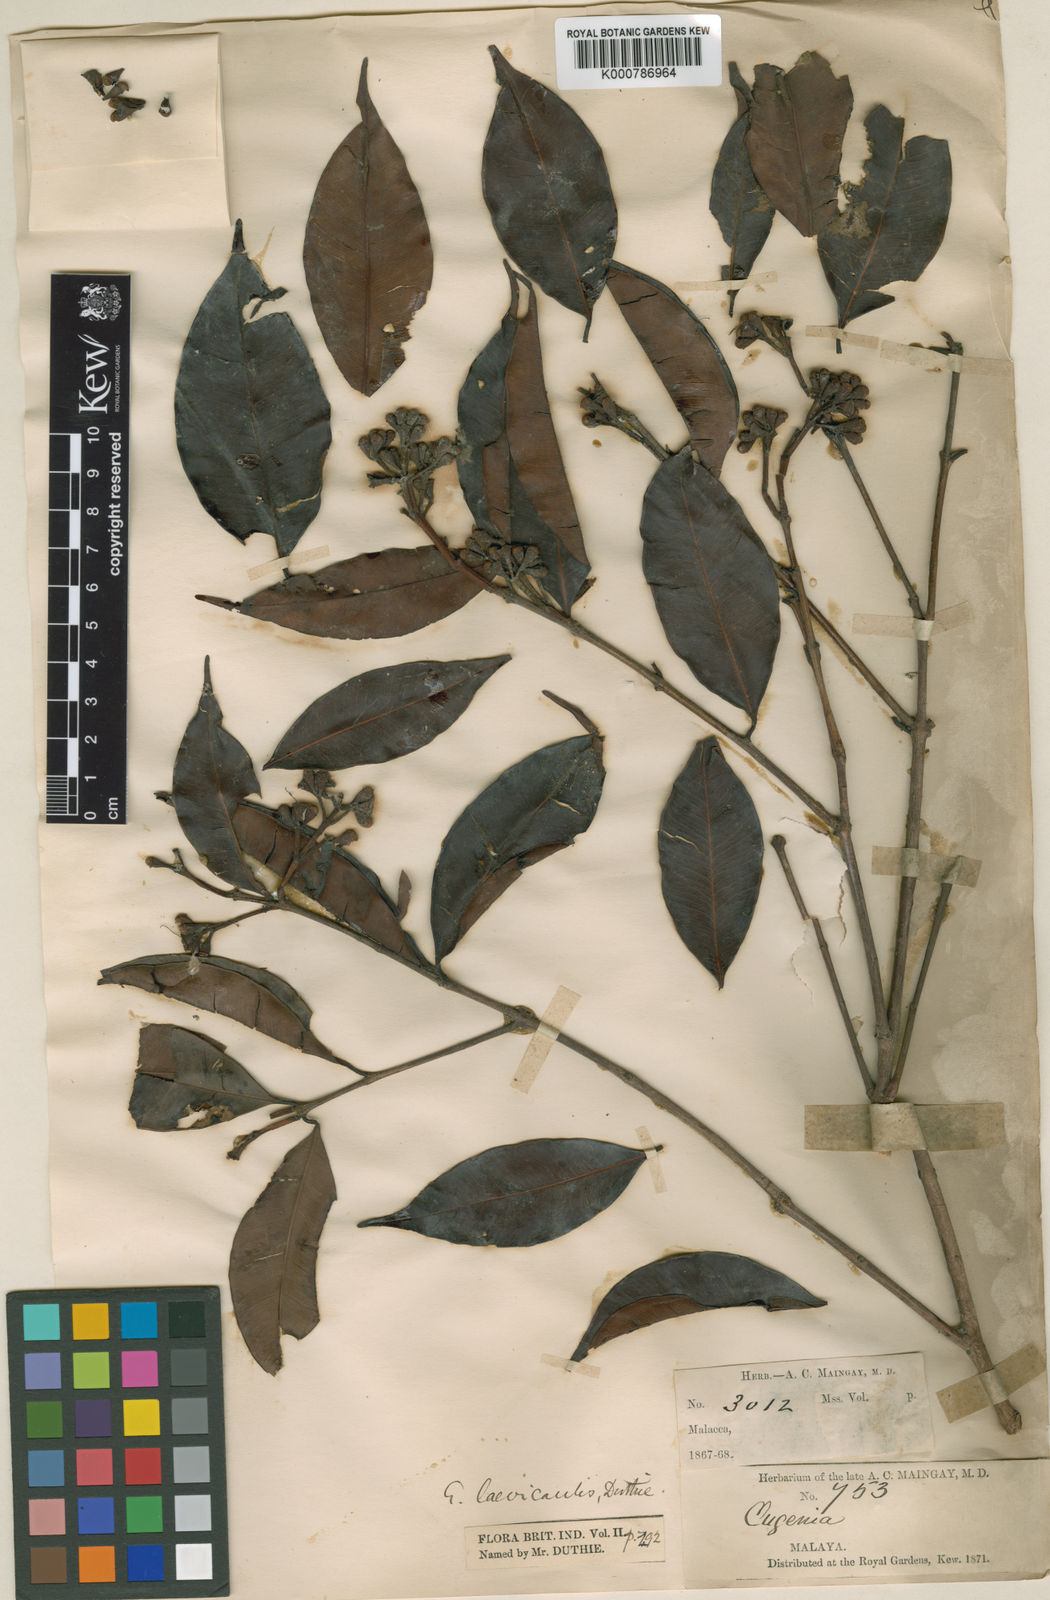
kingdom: Plantae
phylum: Tracheophyta
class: Magnoliopsida
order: Myrtales
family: Myrtaceae
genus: Syzygium
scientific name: Syzygium oblatum
